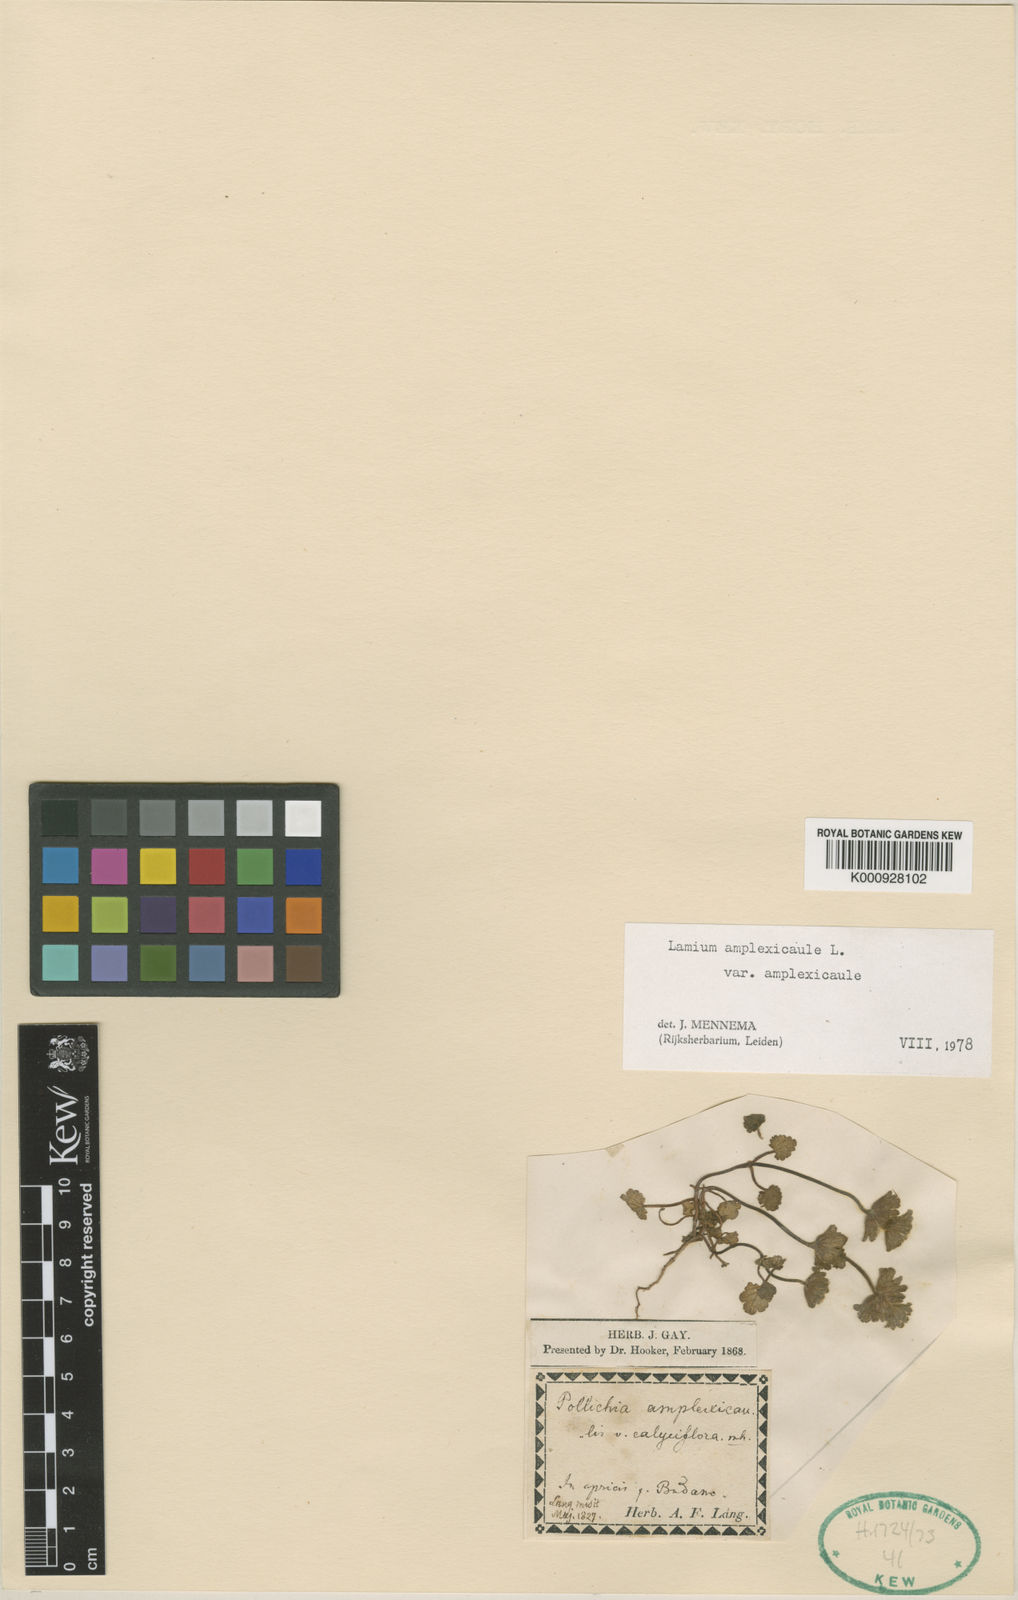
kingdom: Plantae
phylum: Tracheophyta
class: Magnoliopsida
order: Lamiales
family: Lamiaceae
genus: Lamium
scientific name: Lamium amplexicaule
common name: Henbit dead-nettle
